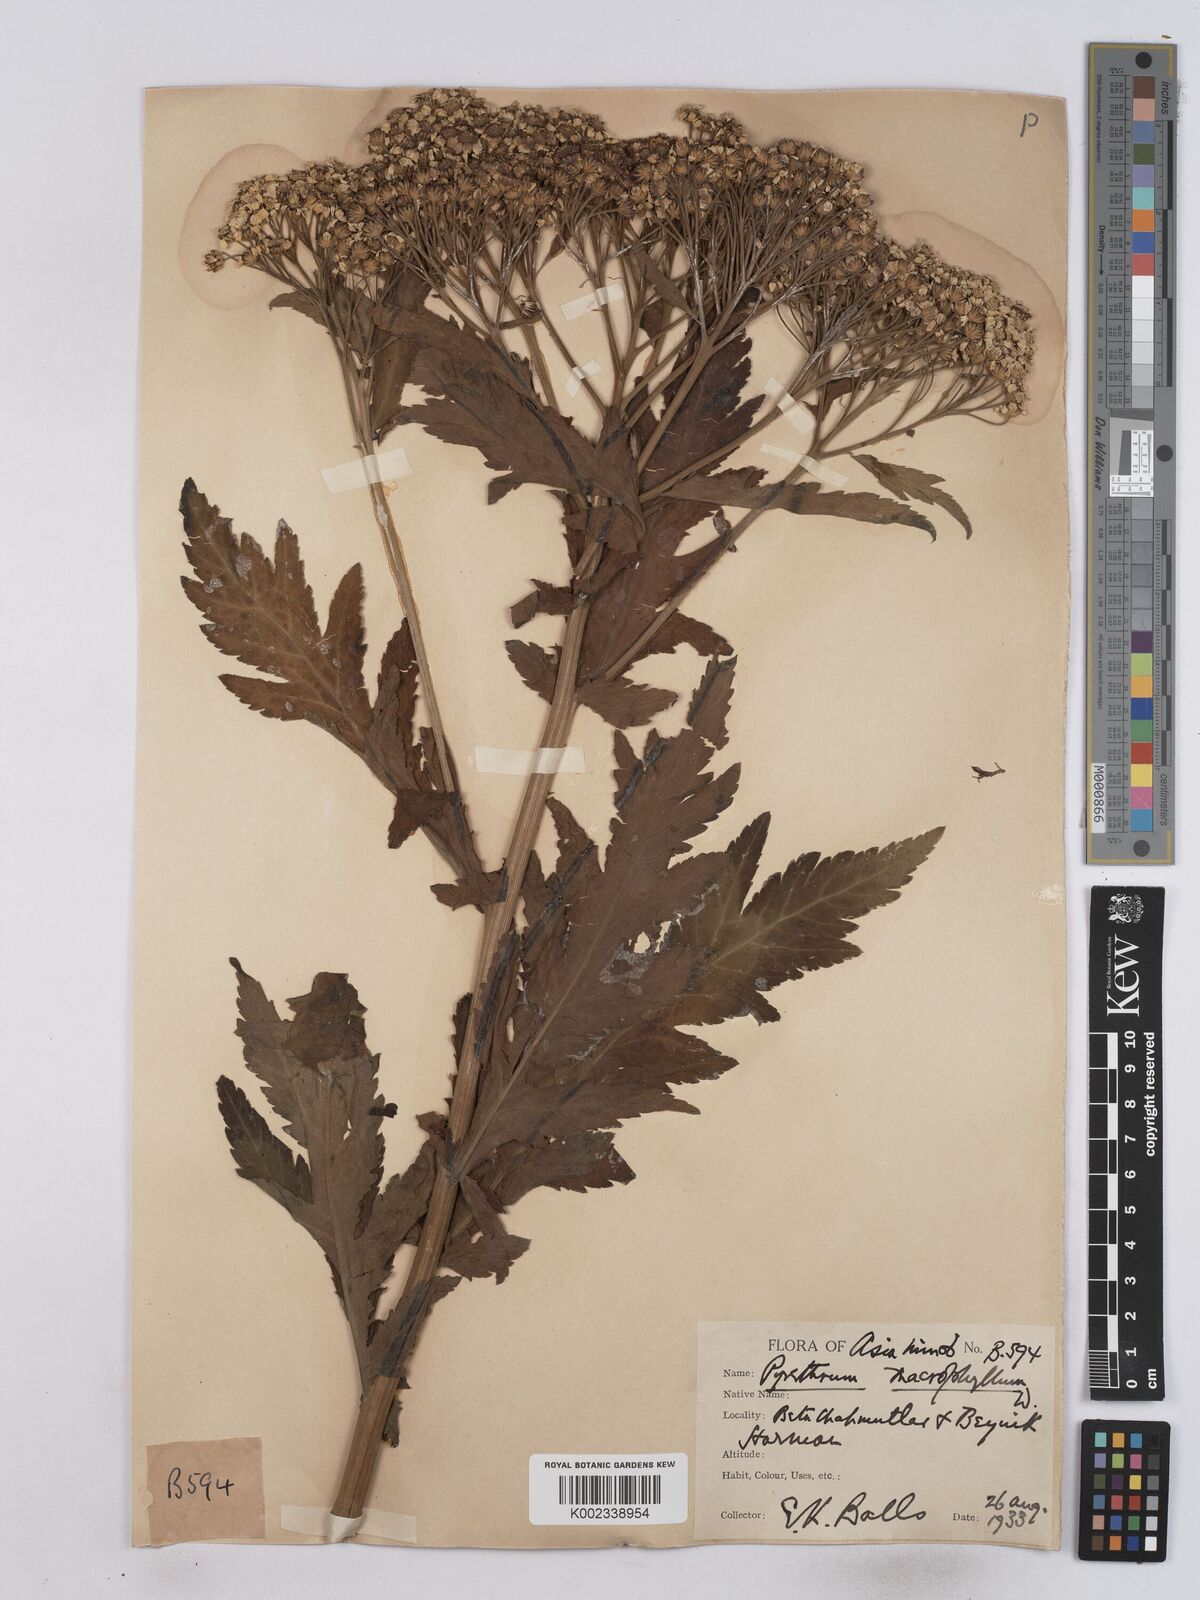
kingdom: Plantae
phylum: Tracheophyta
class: Magnoliopsida
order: Asterales
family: Asteraceae
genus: Tanacetum
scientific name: Tanacetum macrophyllum
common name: Rayed tansy
